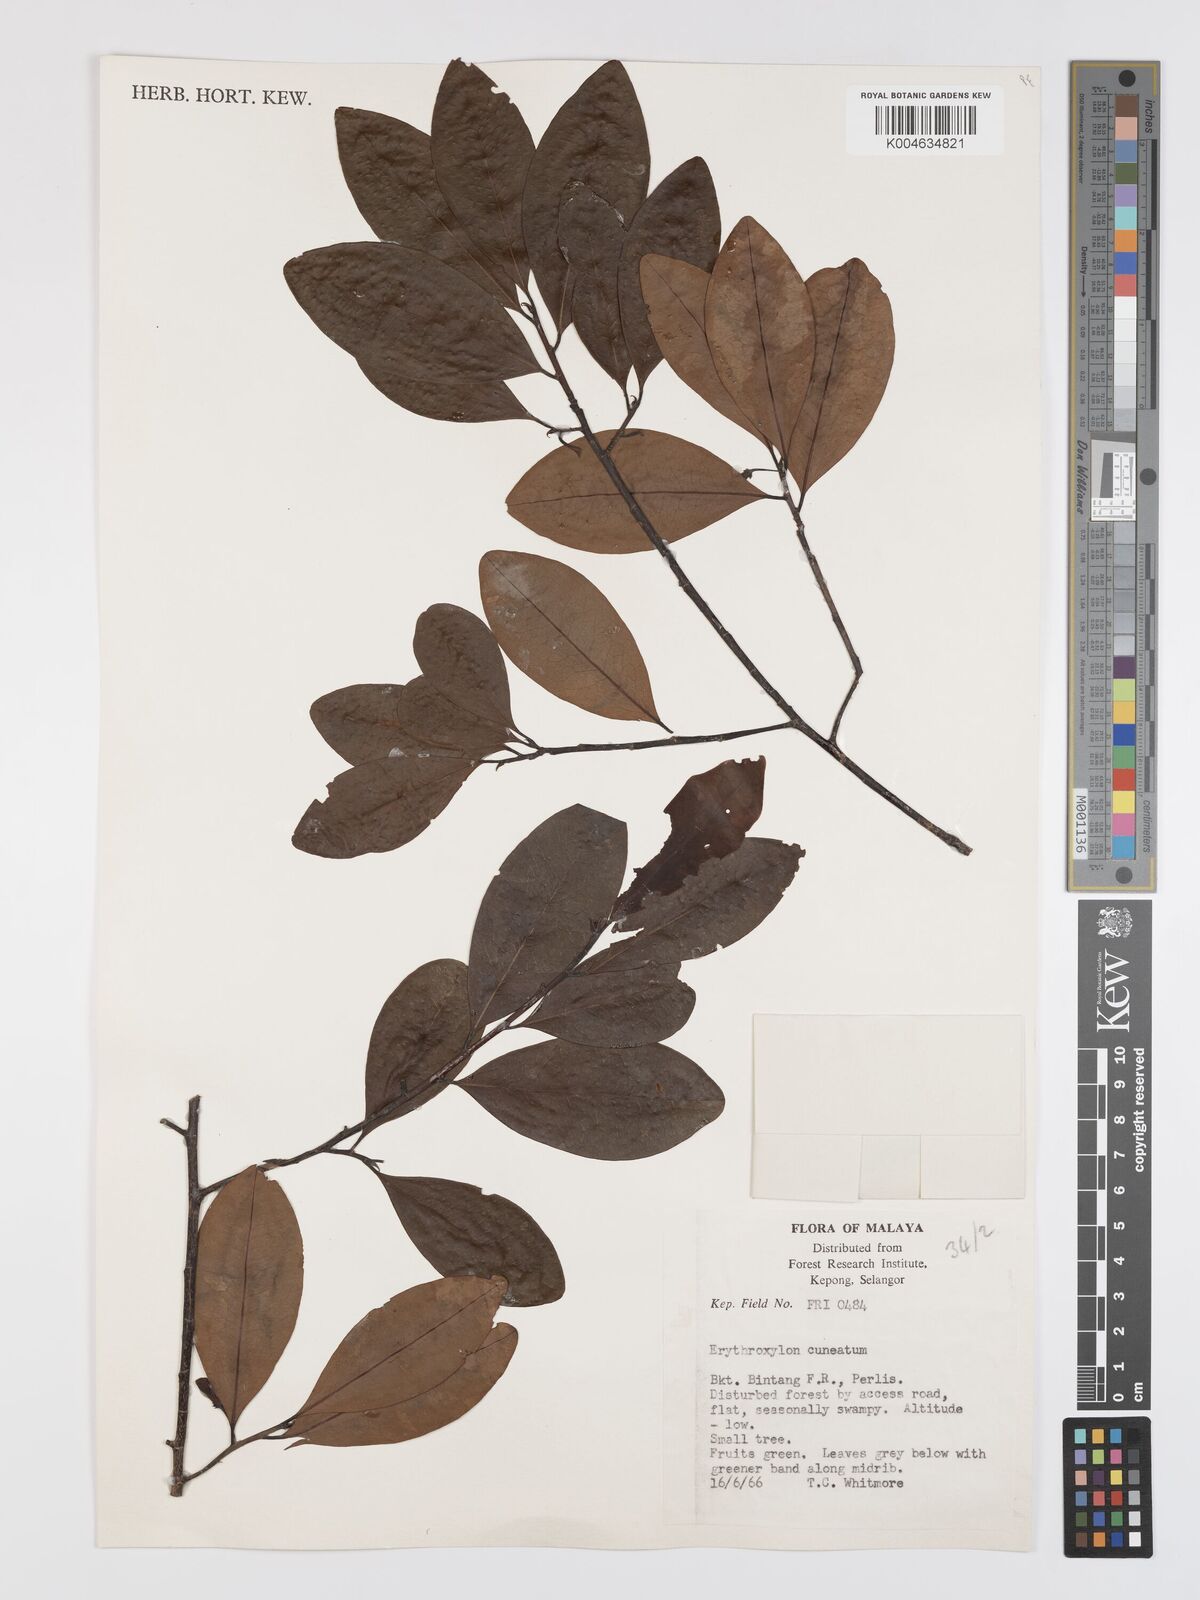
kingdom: Plantae
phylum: Tracheophyta
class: Magnoliopsida
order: Malpighiales
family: Erythroxylaceae
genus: Erythroxylum
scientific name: Erythroxylum cuneatum
